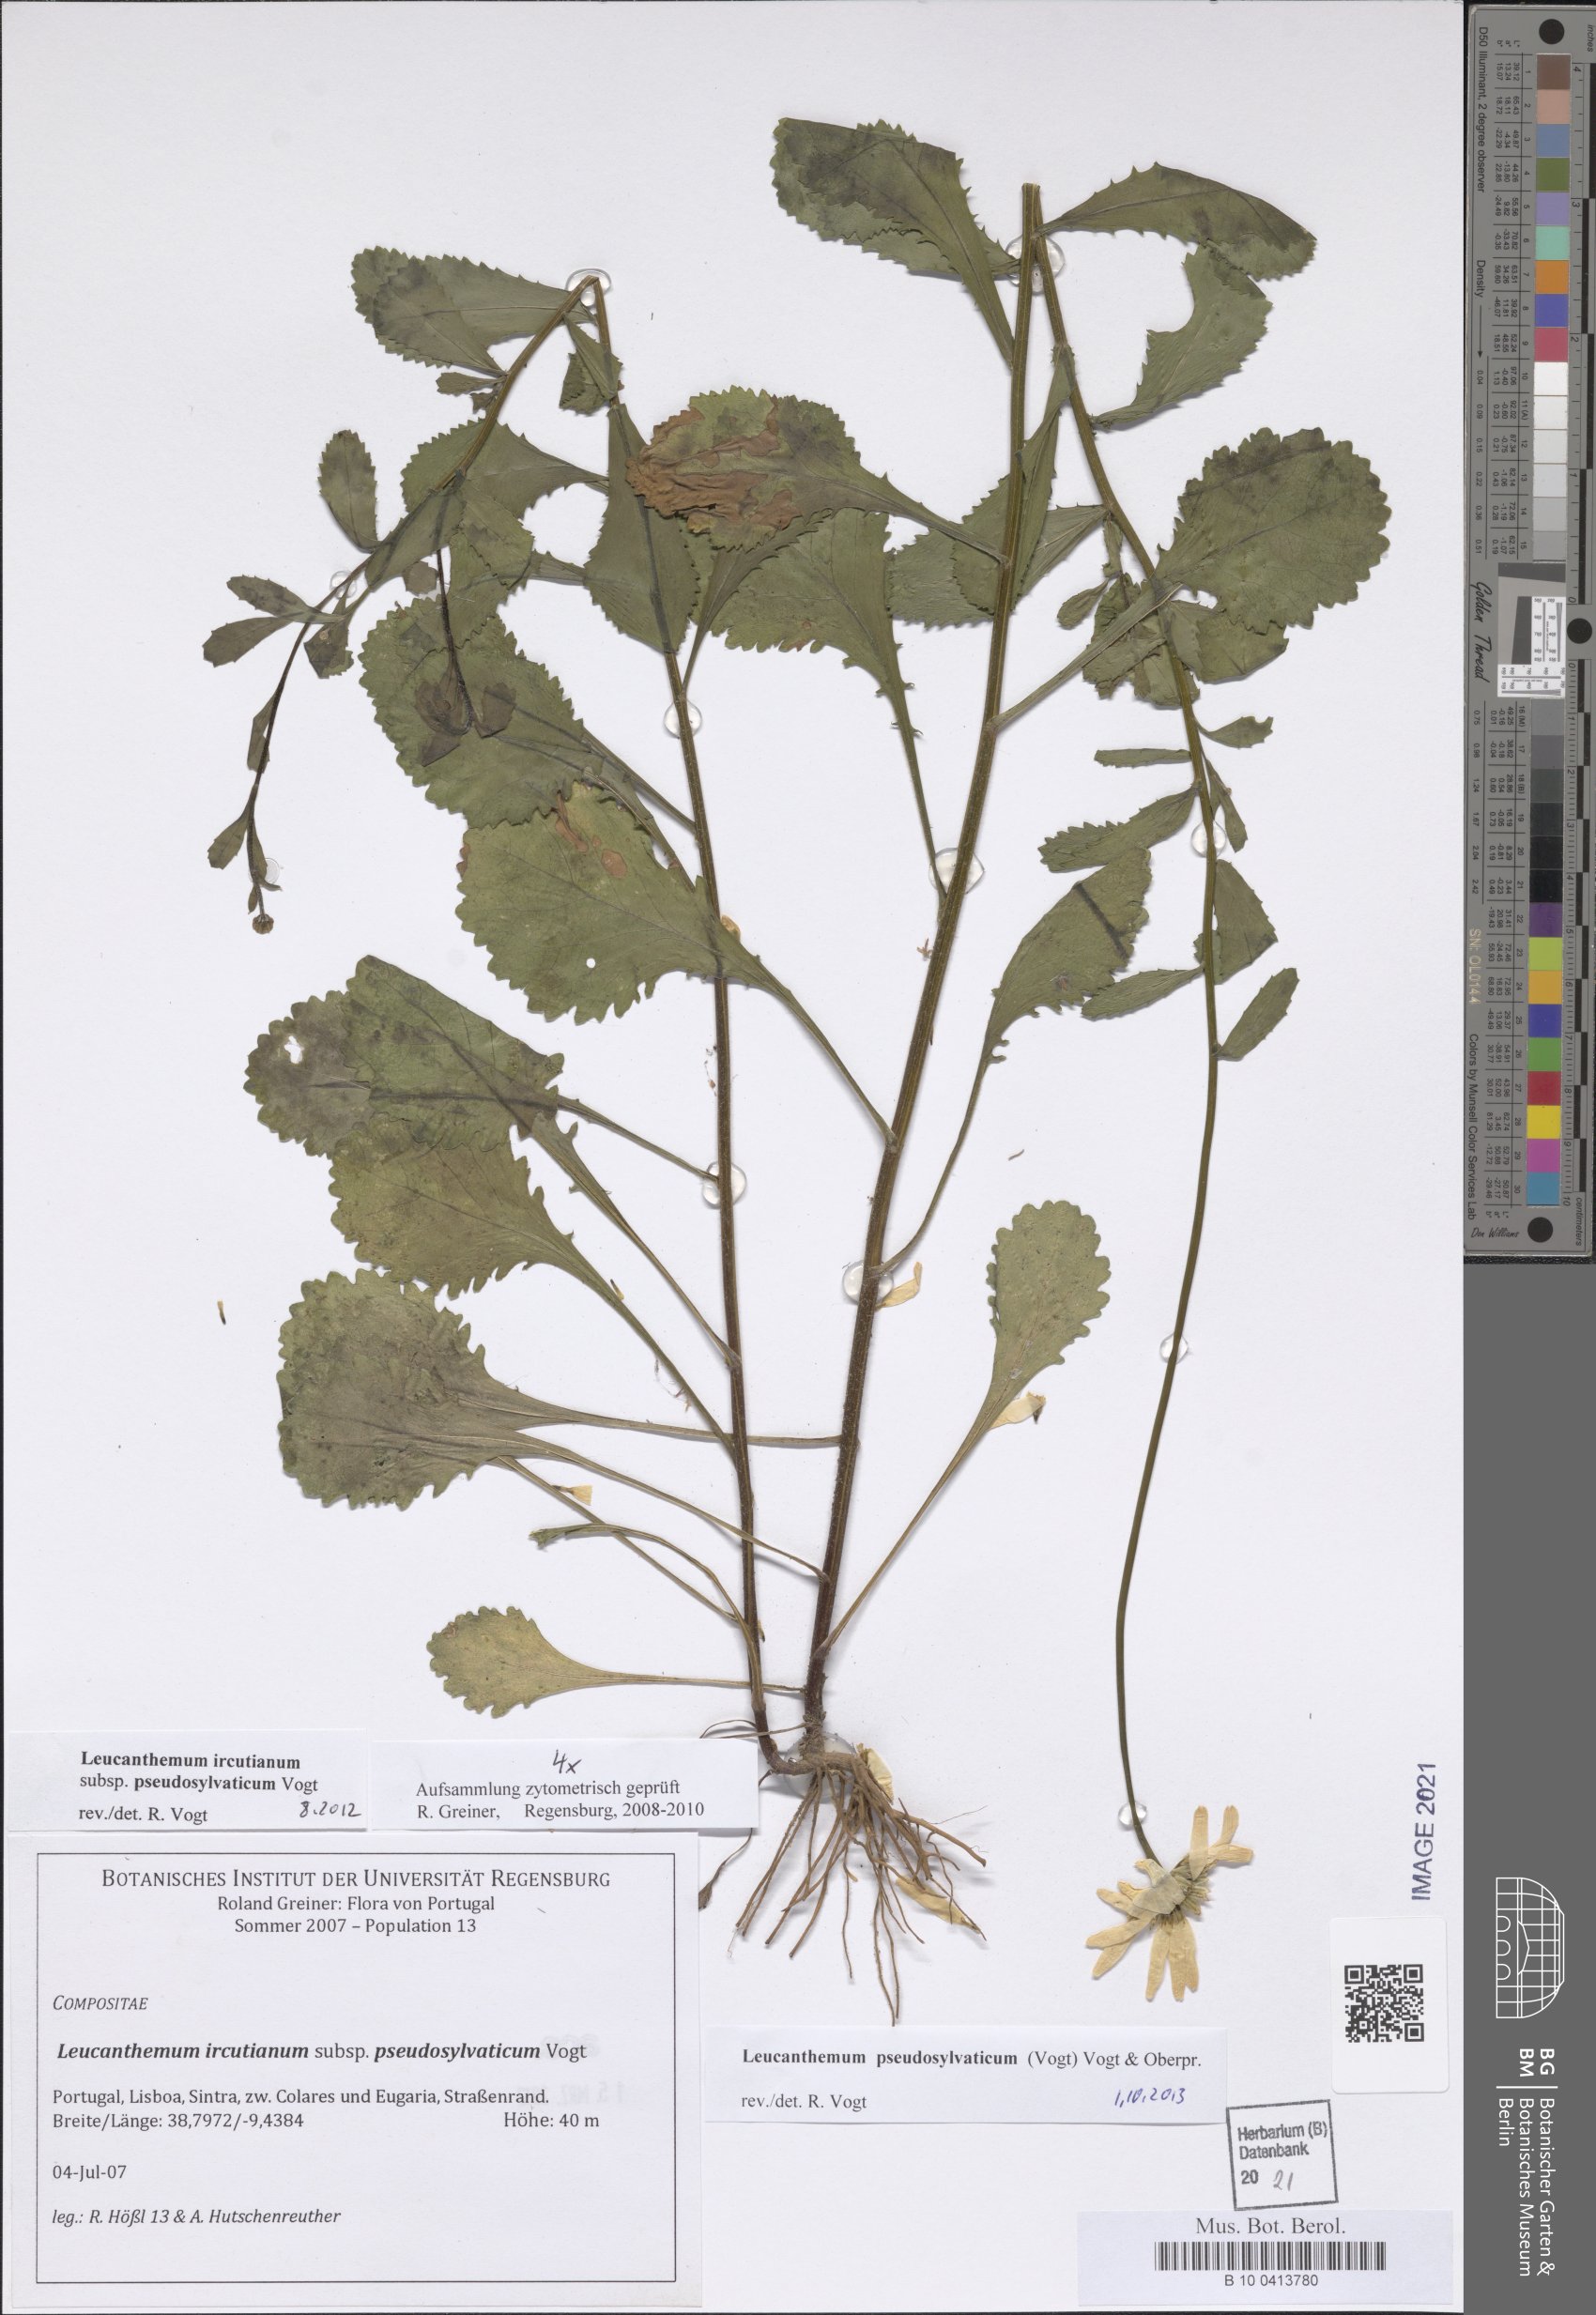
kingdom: Plantae
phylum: Tracheophyta
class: Magnoliopsida
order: Asterales
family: Asteraceae
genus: Leucanthemum
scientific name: Leucanthemum pseudosylvaticum
